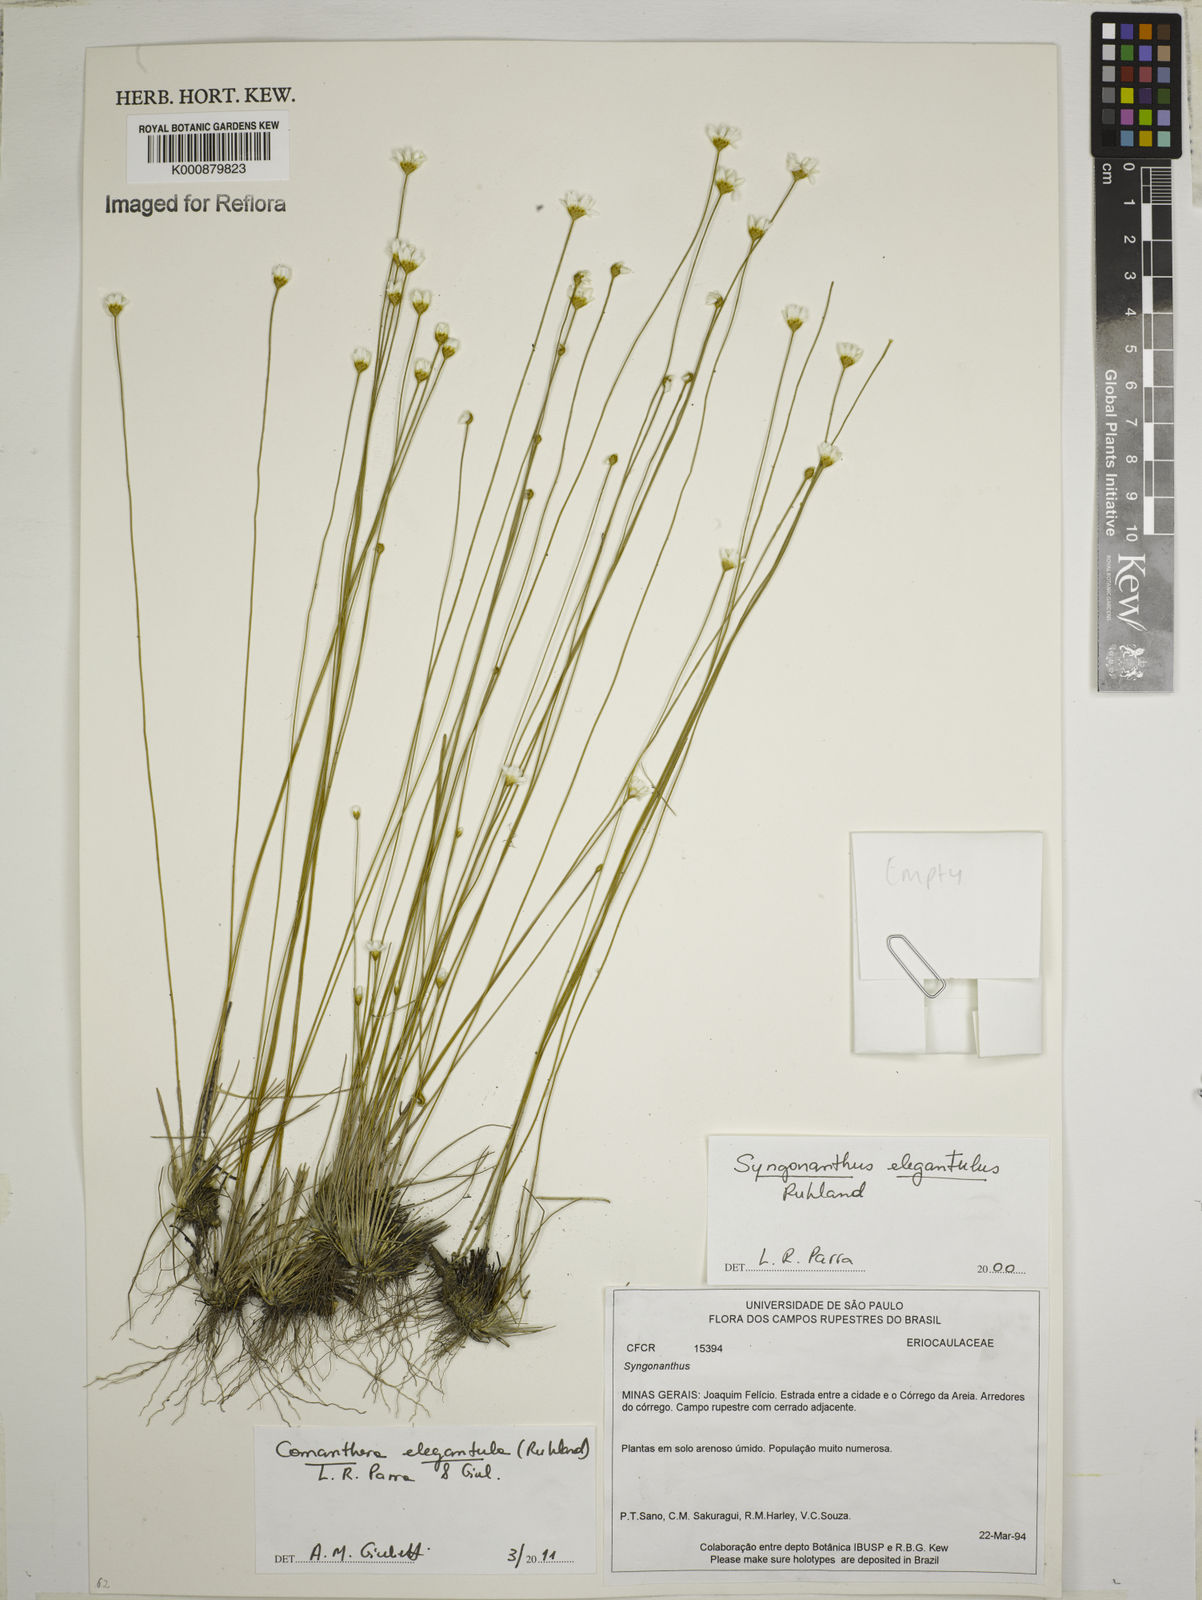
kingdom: Plantae
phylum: Tracheophyta
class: Liliopsida
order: Poales
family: Eriocaulaceae
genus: Comanthera
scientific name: Comanthera elegantula
